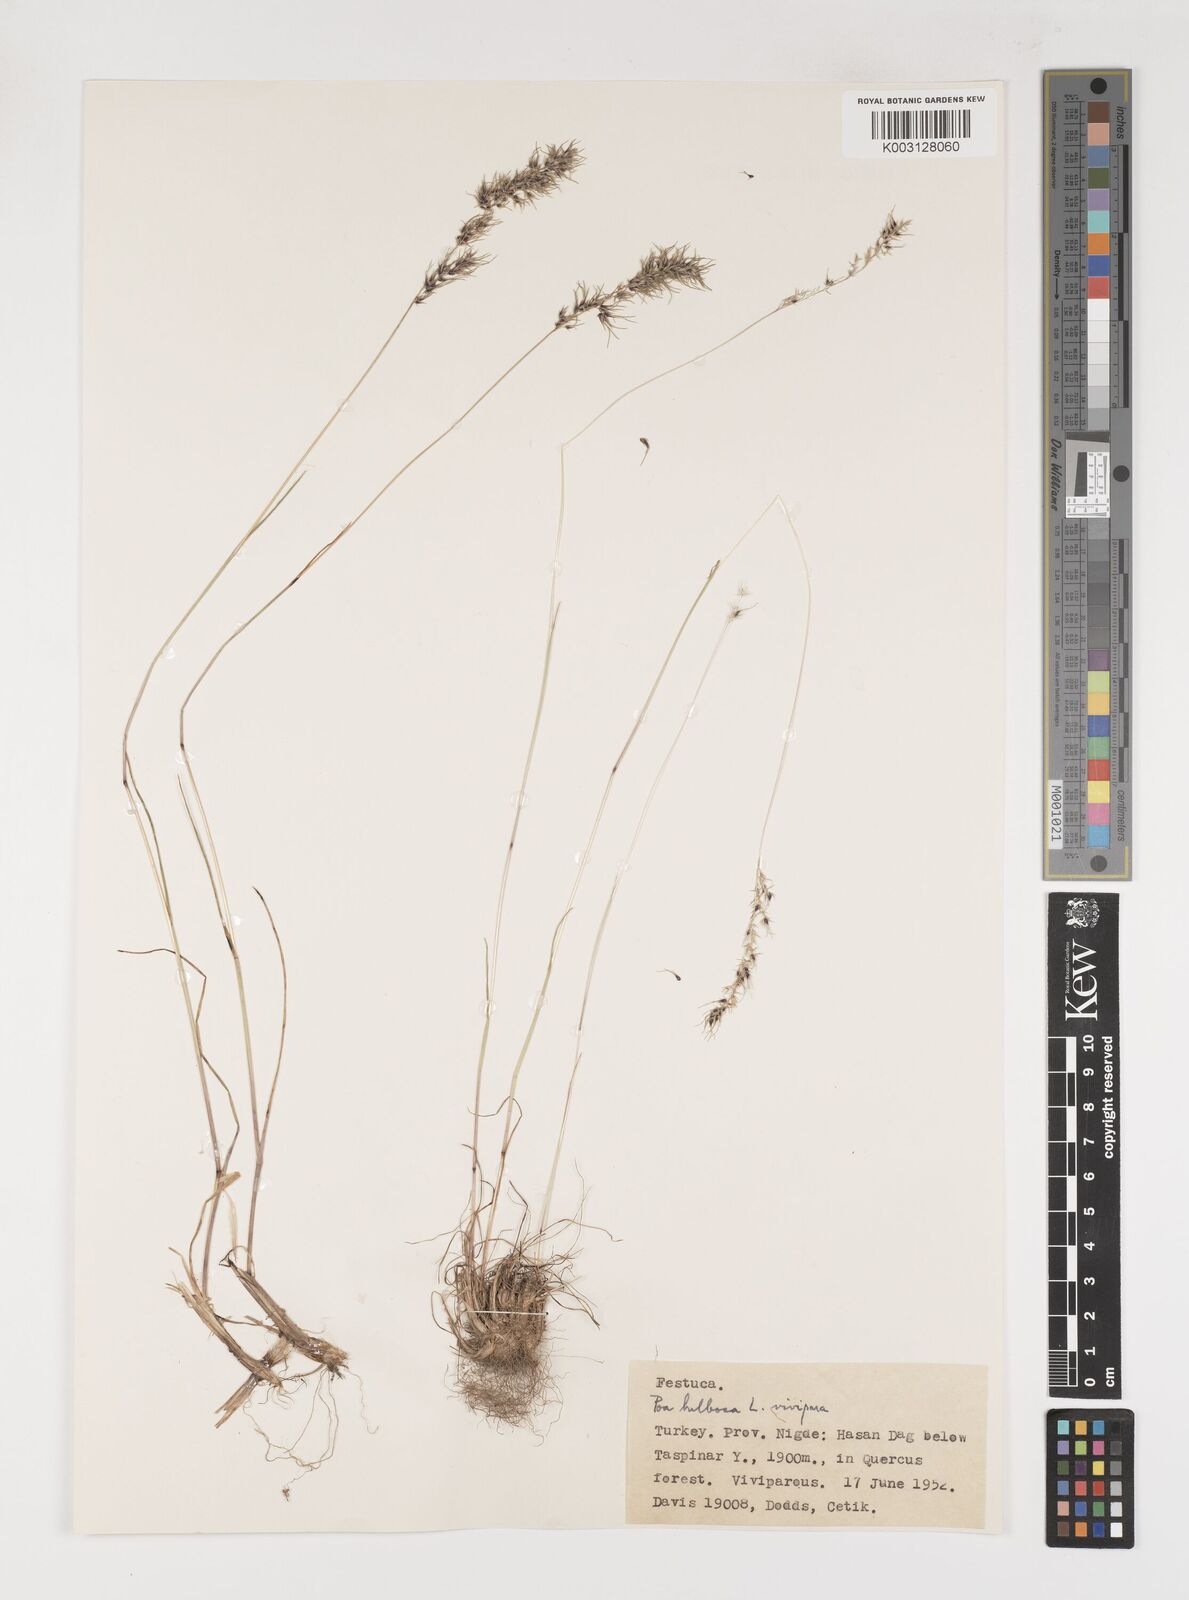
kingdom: Plantae
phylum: Tracheophyta
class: Liliopsida
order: Poales
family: Poaceae
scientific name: Poaceae
